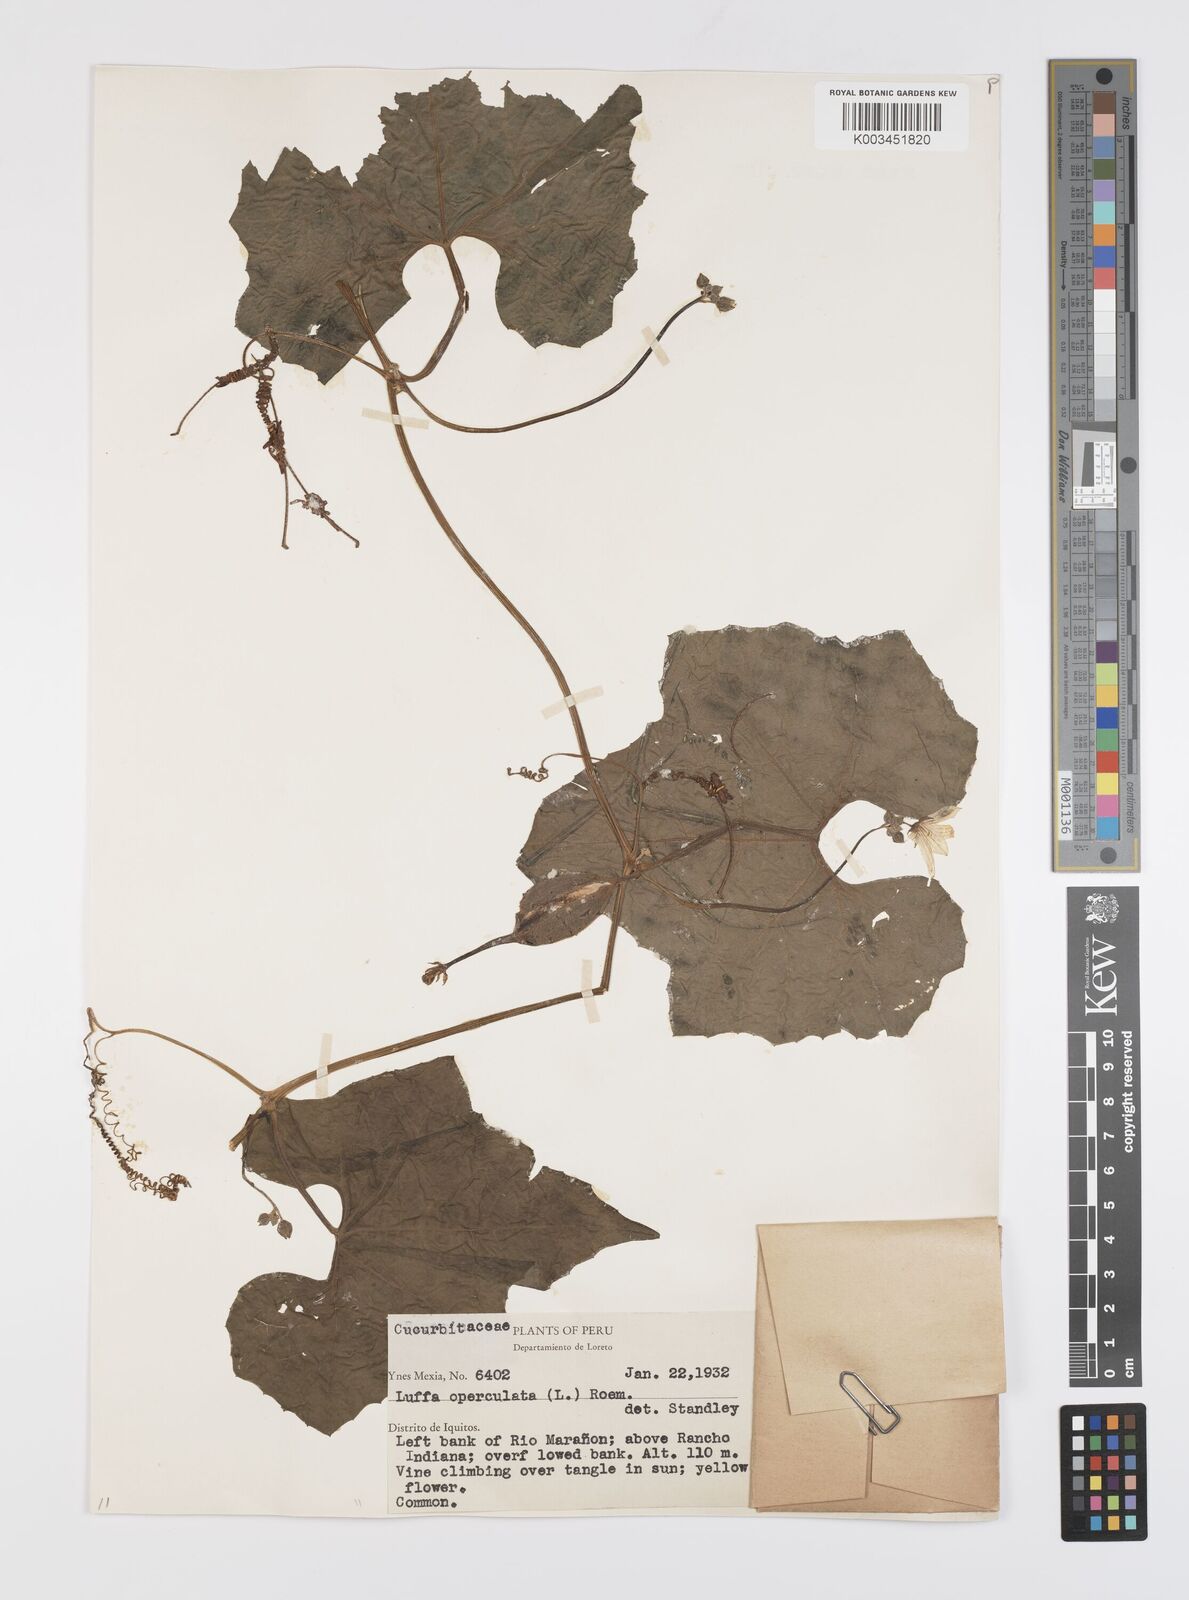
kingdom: Plantae
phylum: Tracheophyta
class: Magnoliopsida
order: Cucurbitales
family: Cucurbitaceae
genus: Luffa
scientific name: Luffa operculata
